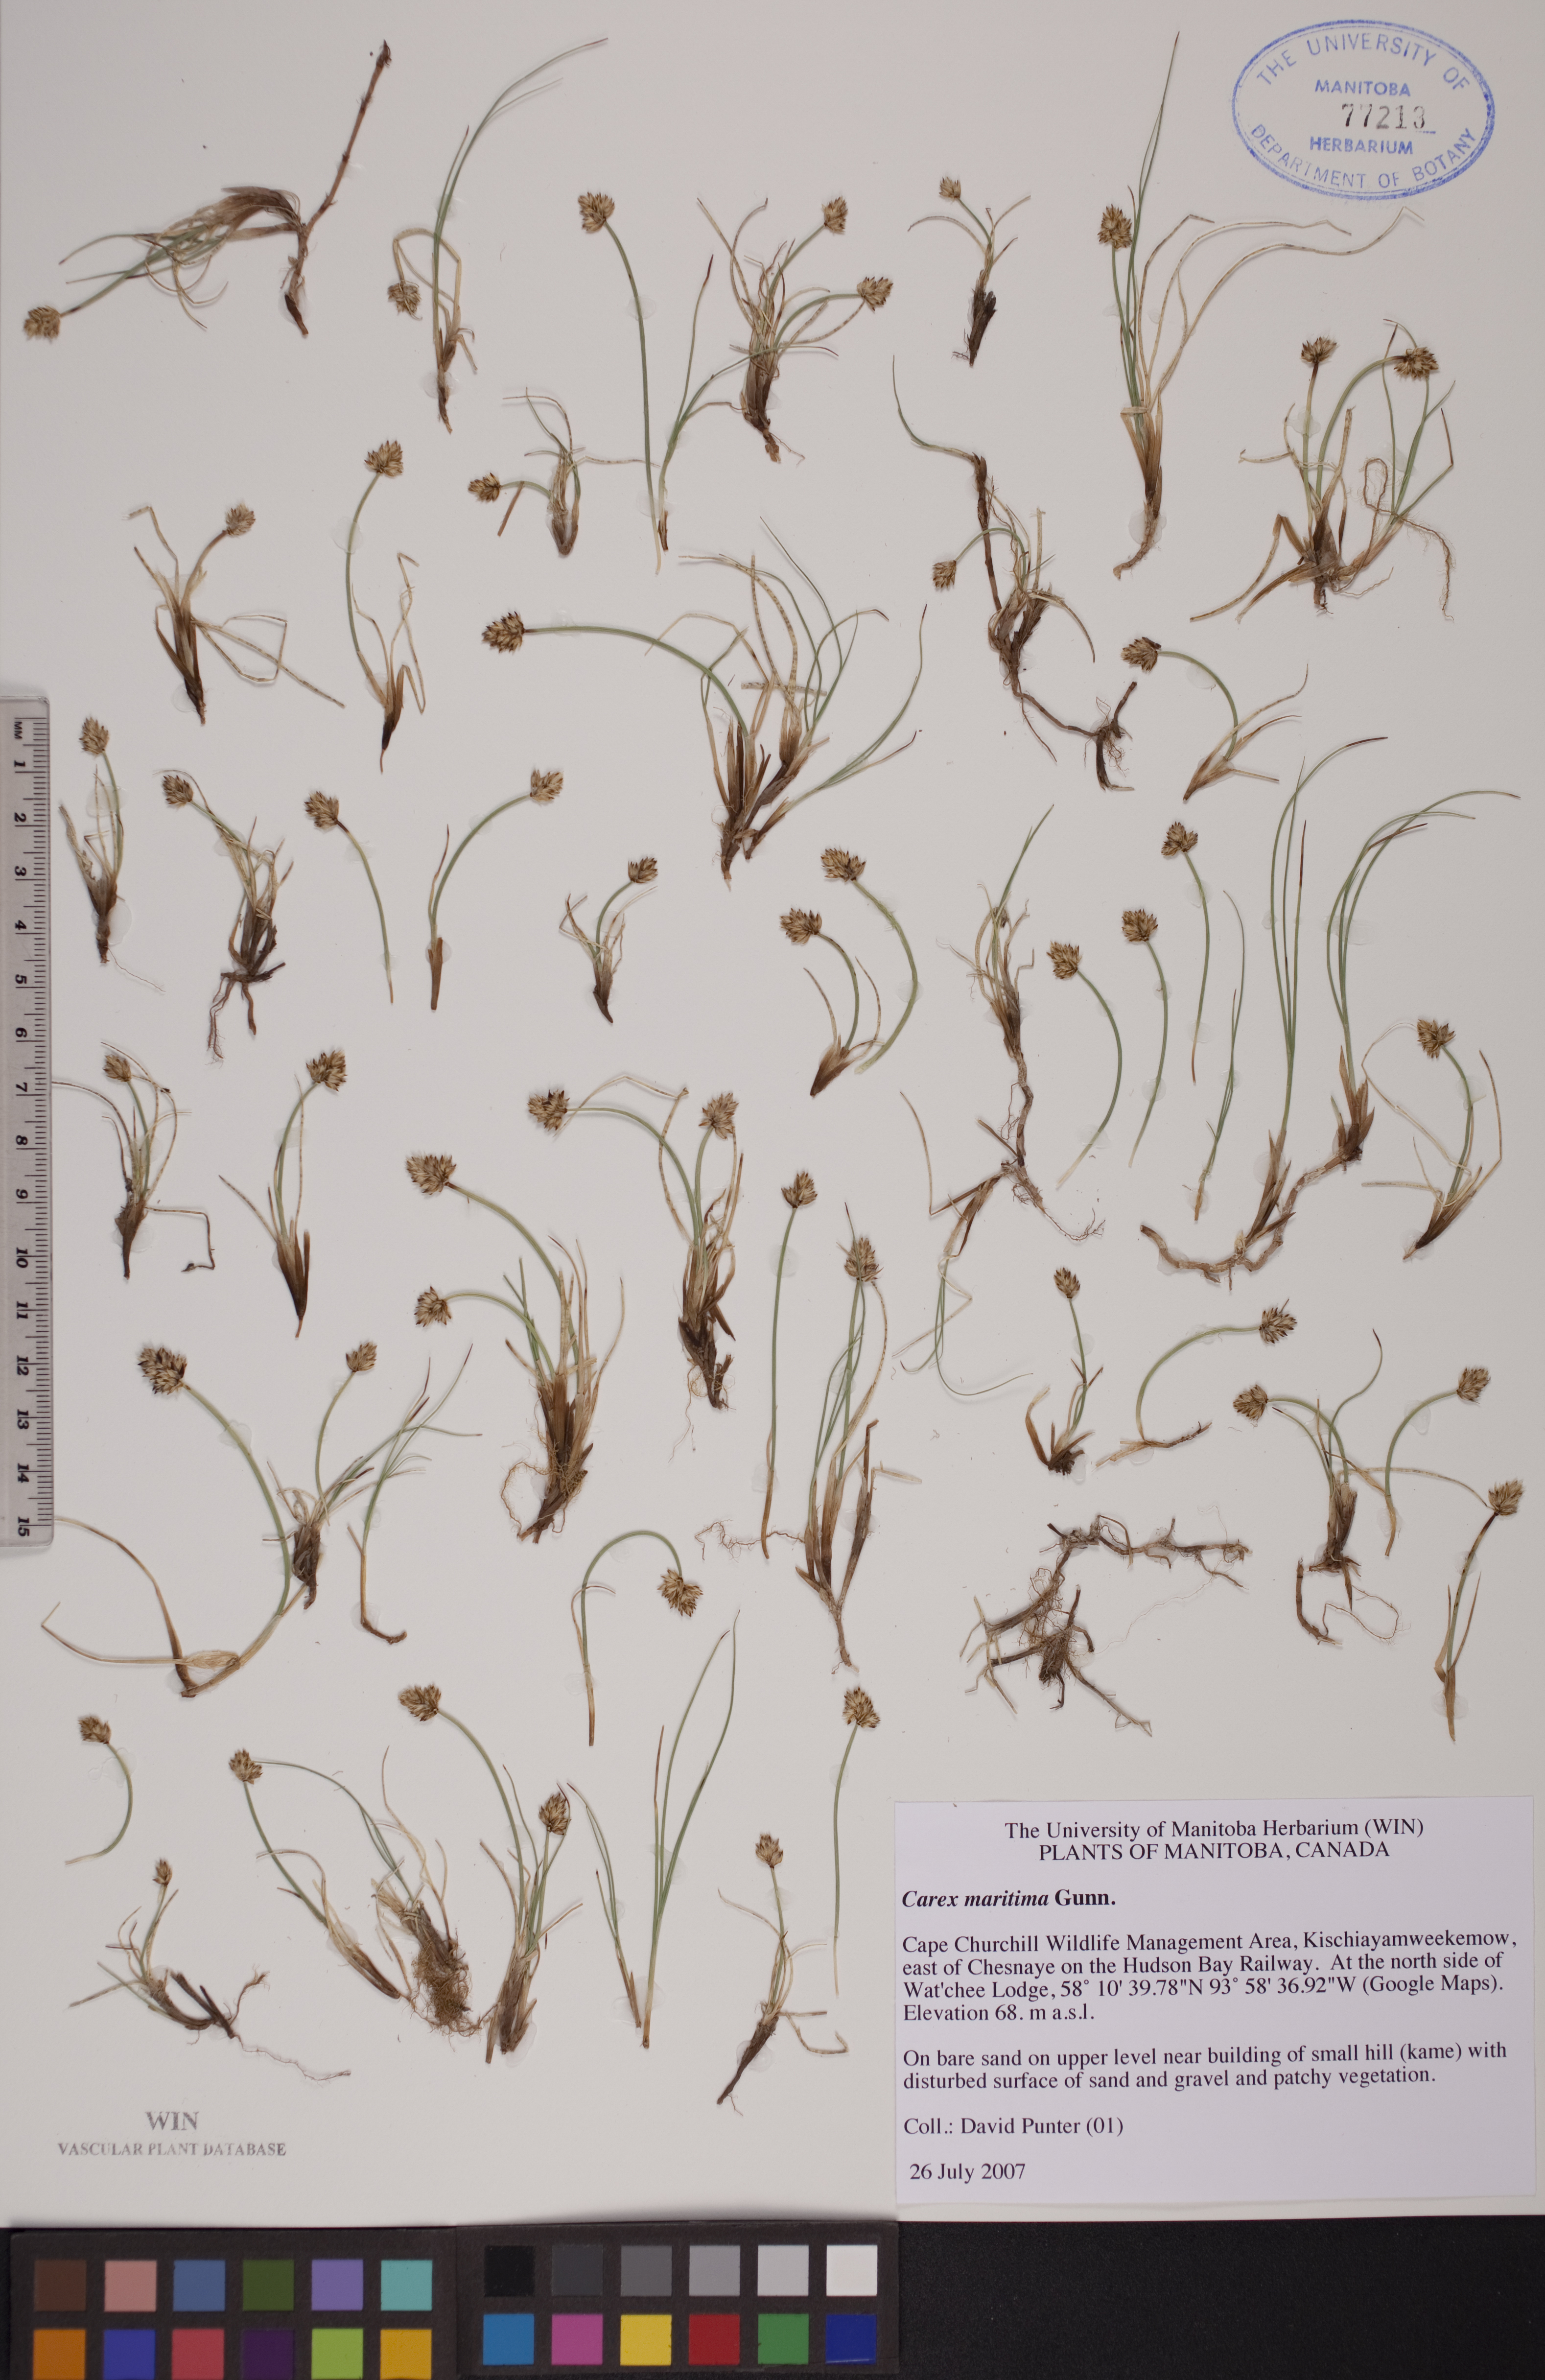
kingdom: Plantae
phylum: Tracheophyta
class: Liliopsida
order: Poales
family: Cyperaceae
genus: Carex
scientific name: Carex maritima
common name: Curved sedge
